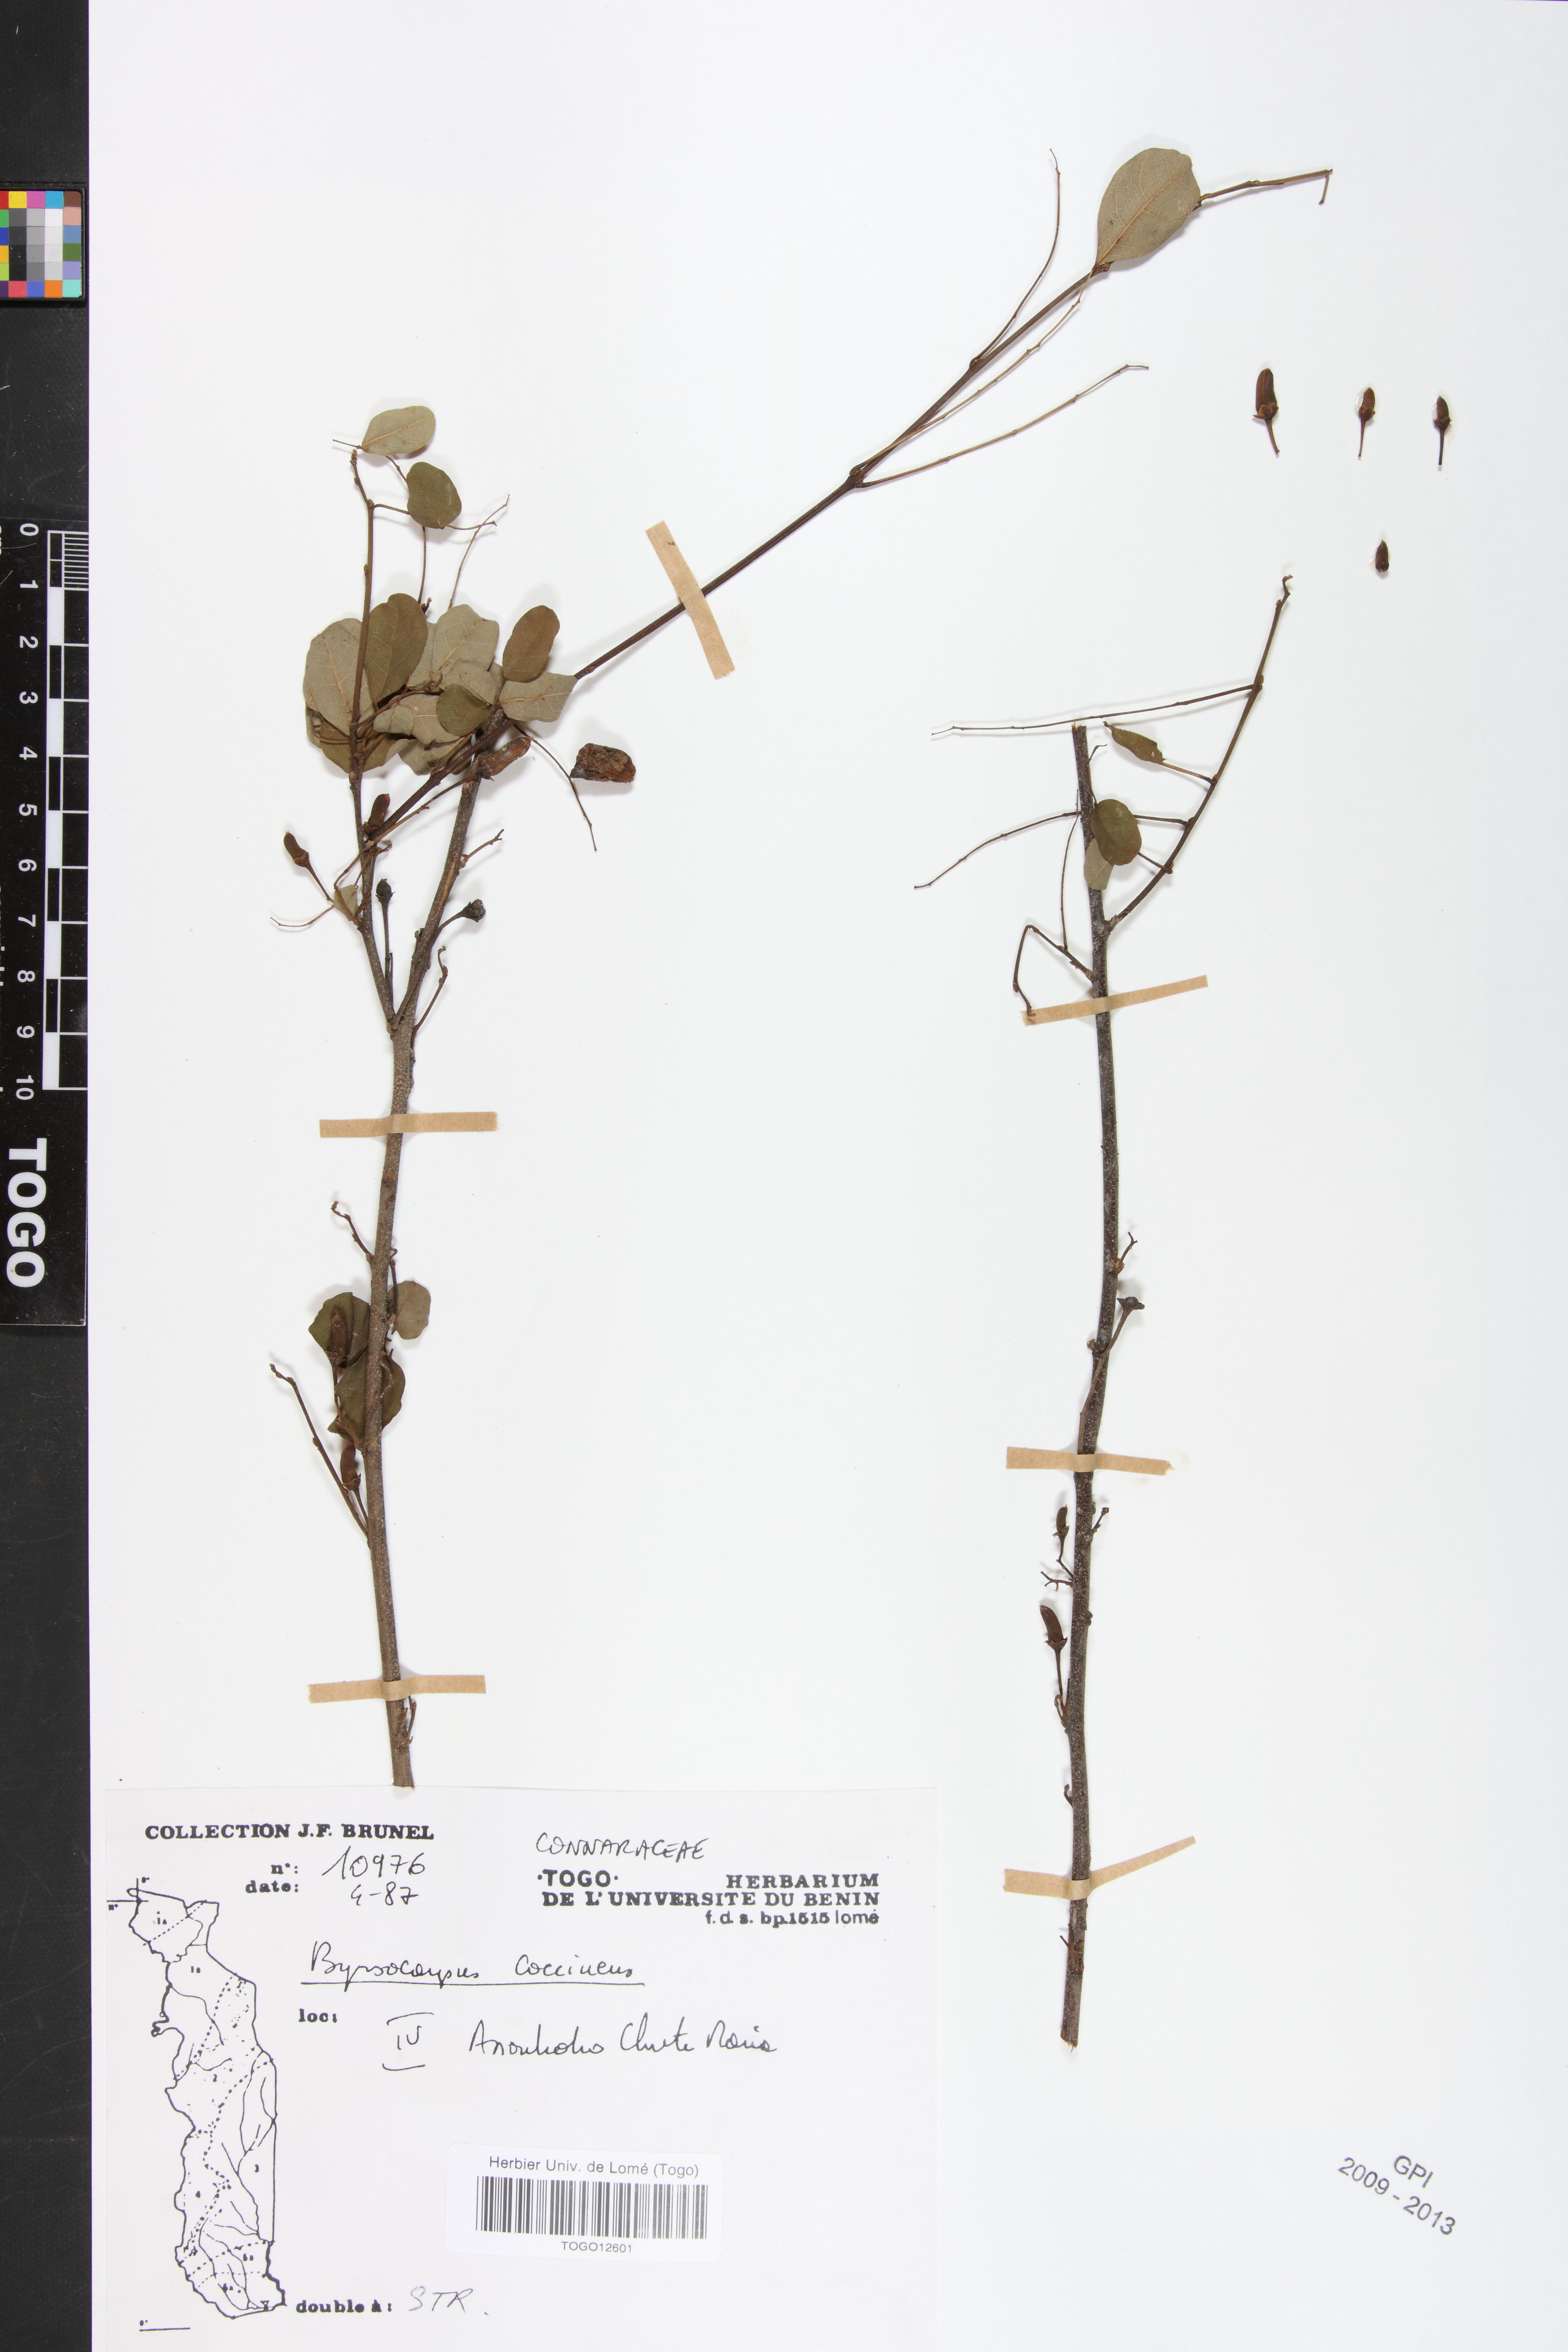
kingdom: Plantae
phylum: Tracheophyta
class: Magnoliopsida
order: Oxalidales
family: Connaraceae
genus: Rourea
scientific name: Rourea coccinea
